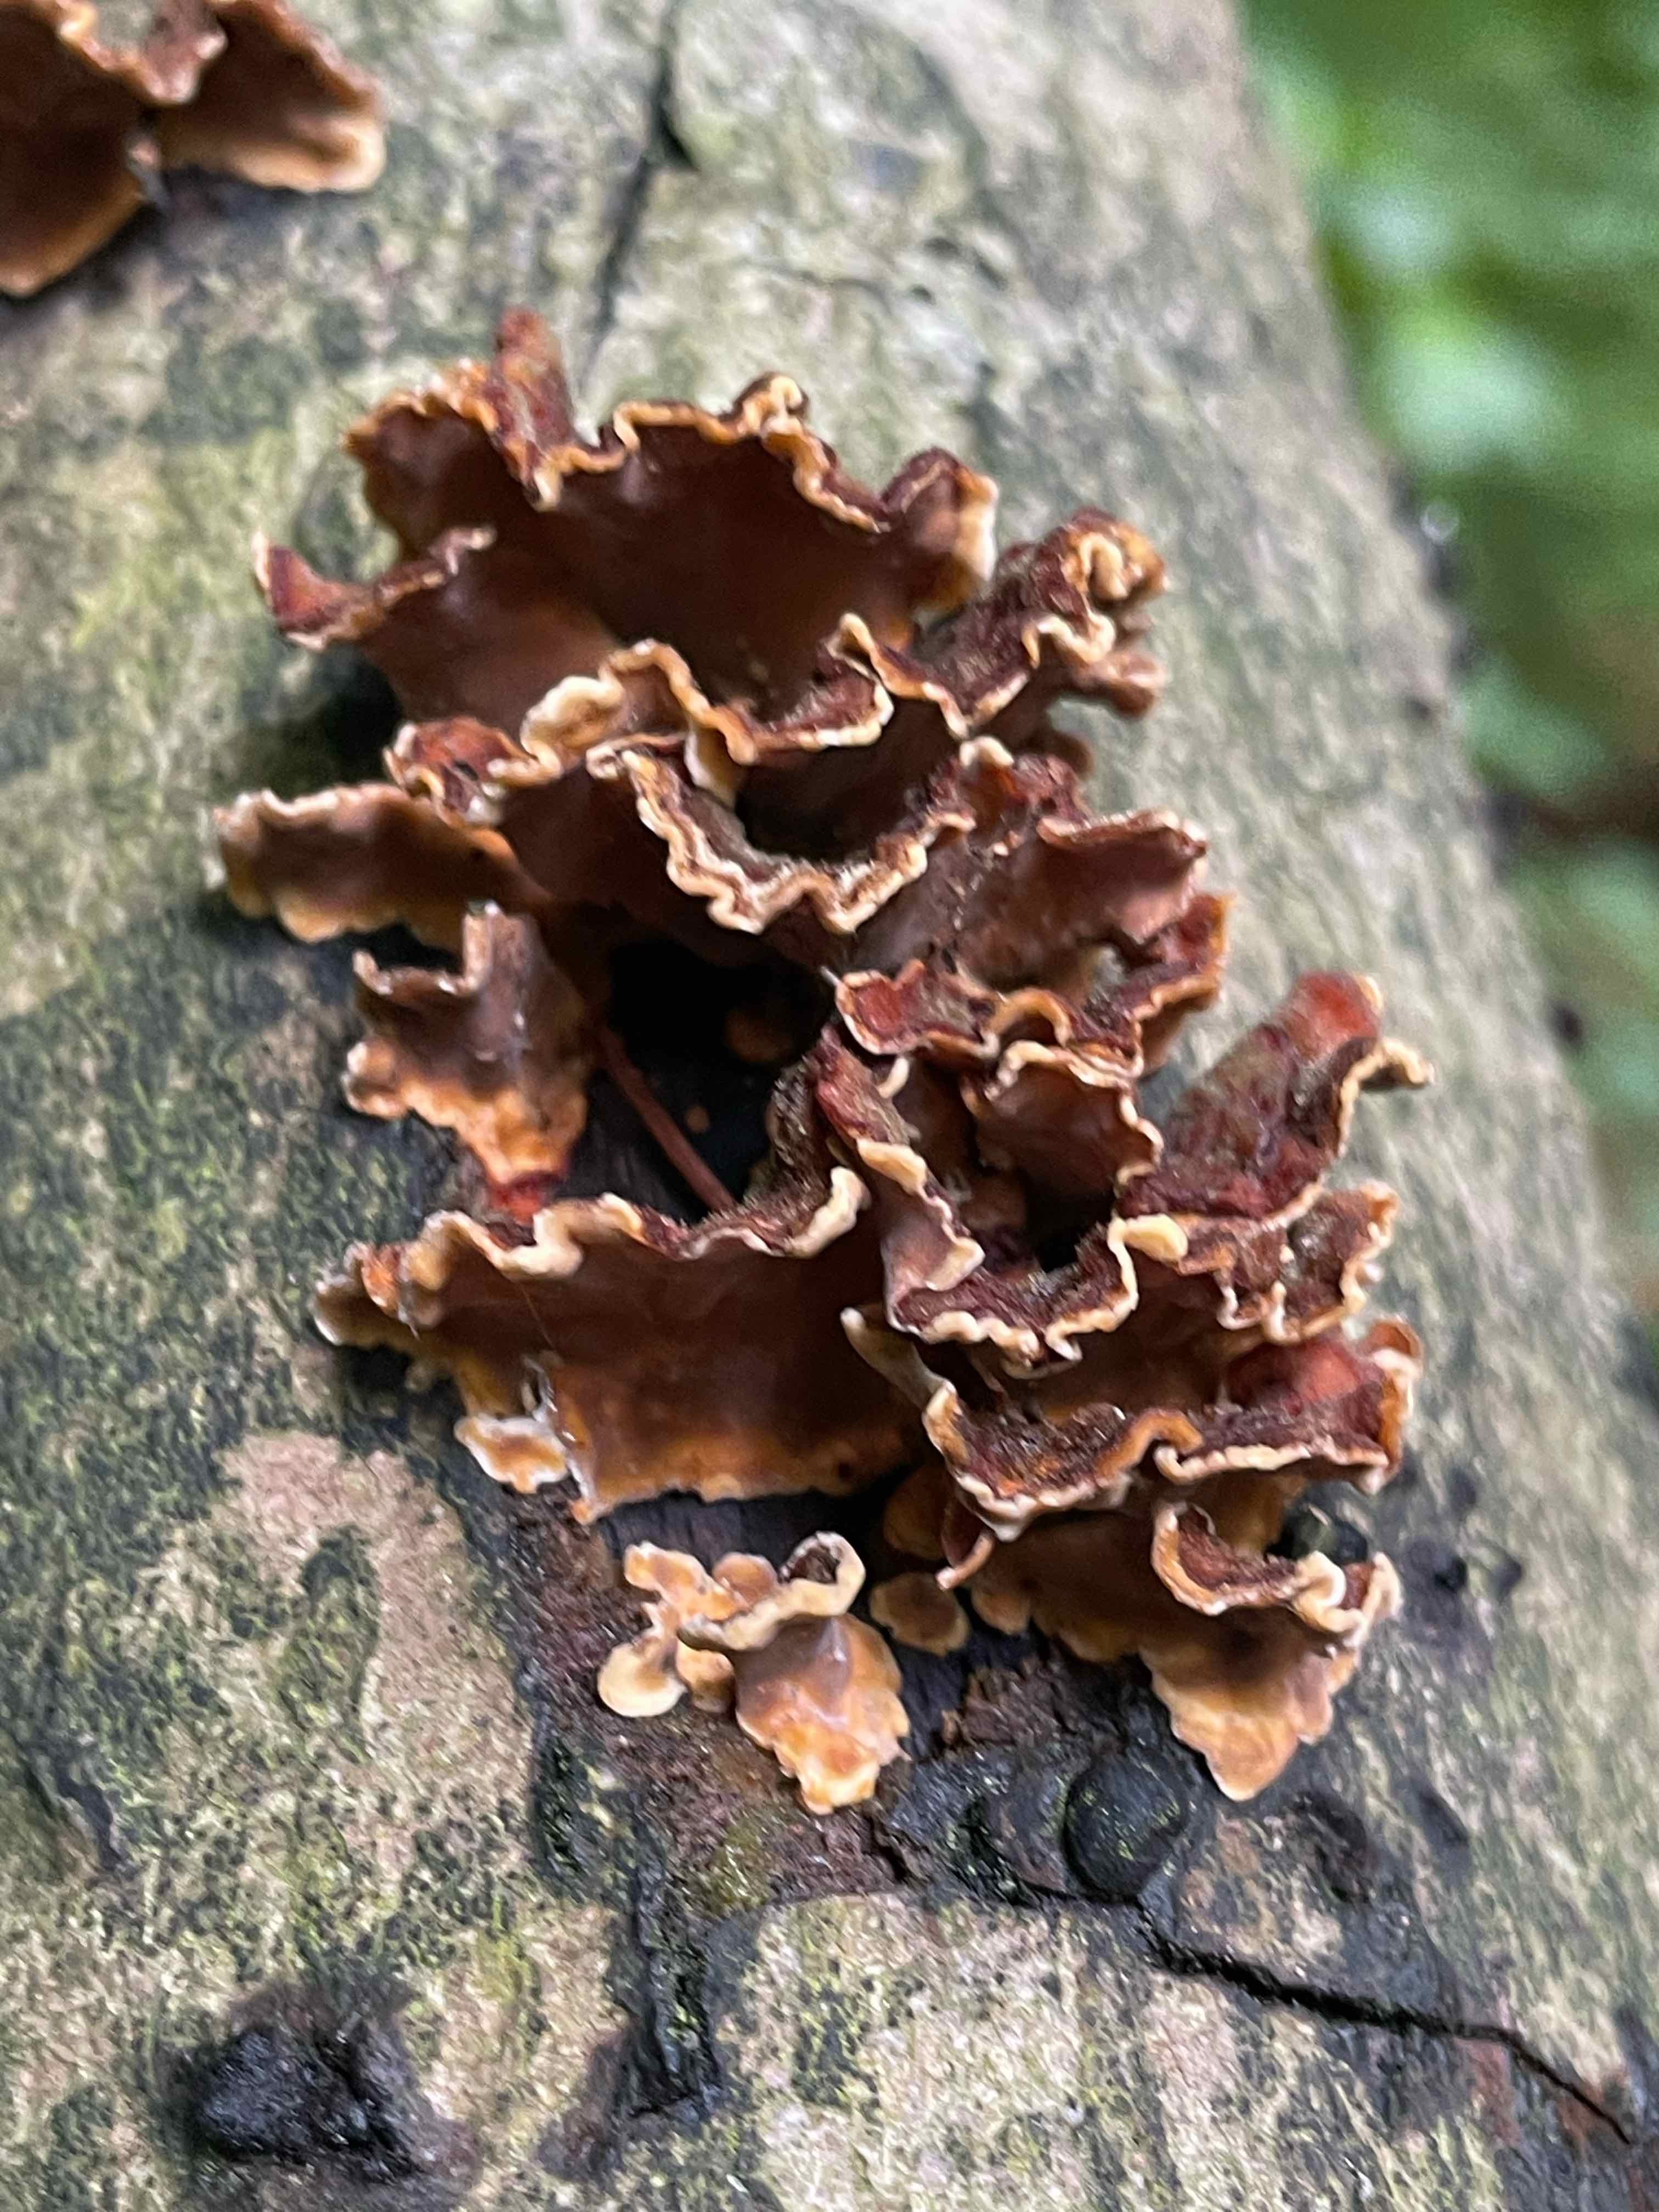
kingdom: Fungi
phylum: Basidiomycota
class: Agaricomycetes
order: Russulales
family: Stereaceae
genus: Stereum
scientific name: Stereum hirsutum
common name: håret lædersvamp
